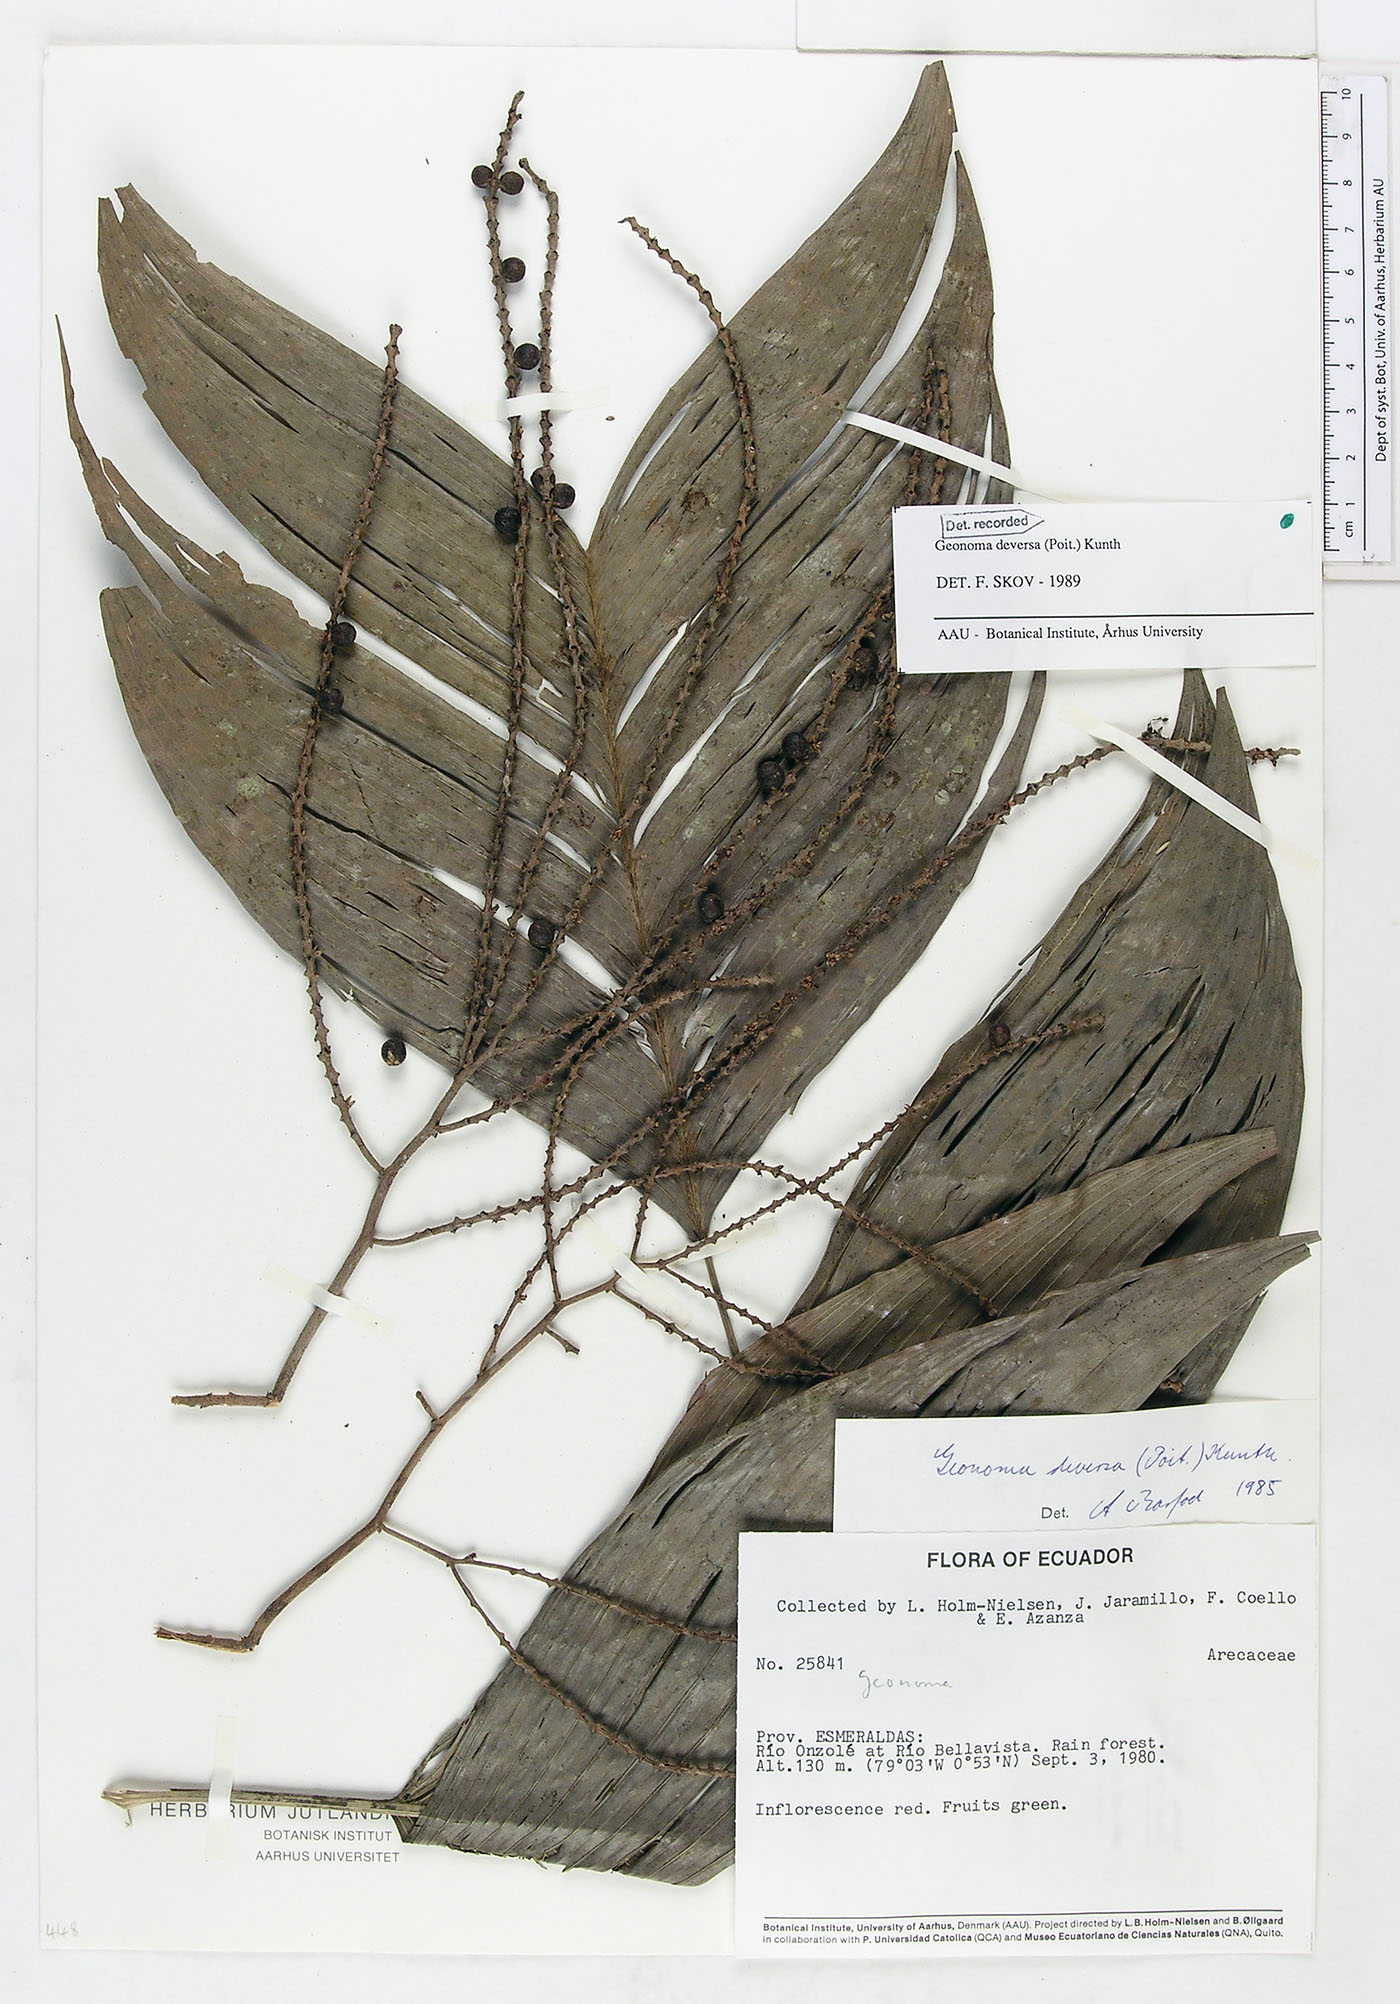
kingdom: Plantae
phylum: Tracheophyta
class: Liliopsida
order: Arecales
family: Arecaceae
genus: Geonoma
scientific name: Geonoma deversa
